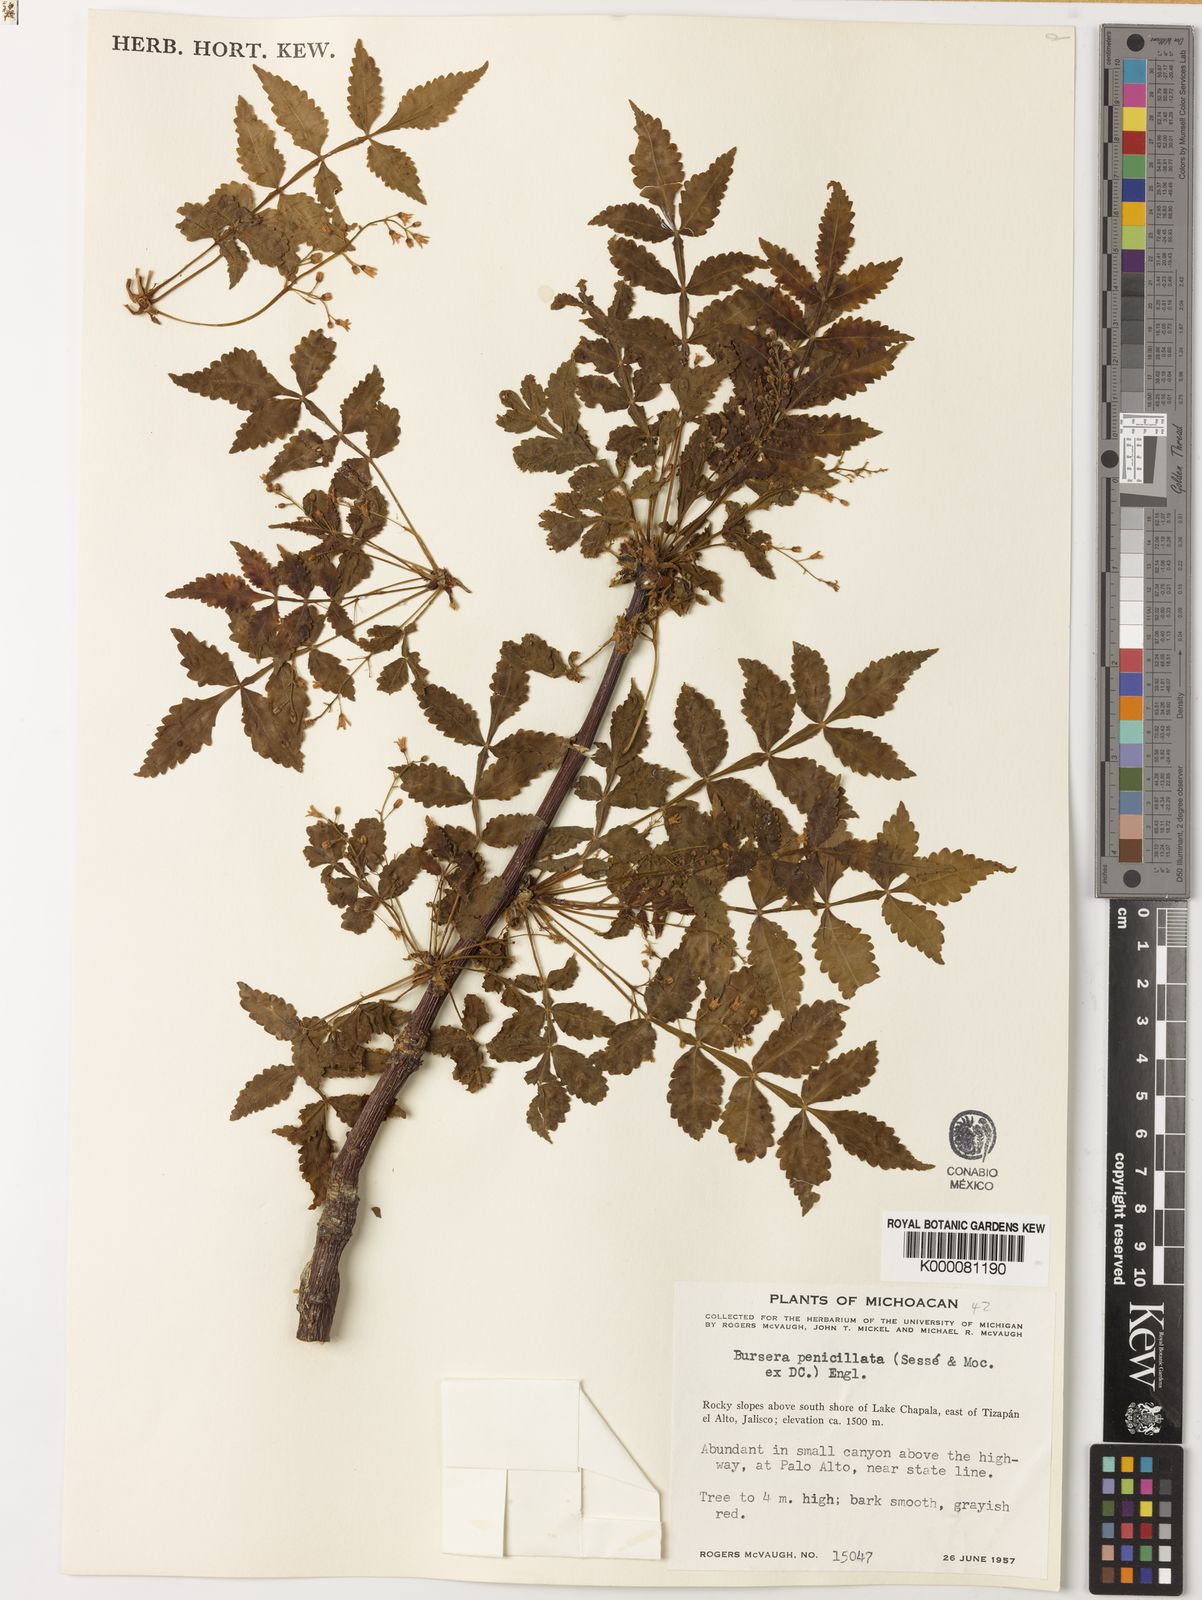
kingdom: Plantae
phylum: Tracheophyta
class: Magnoliopsida
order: Sapindales
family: Burseraceae
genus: Bursera
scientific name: Bursera penicillata
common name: Indian-lavender
